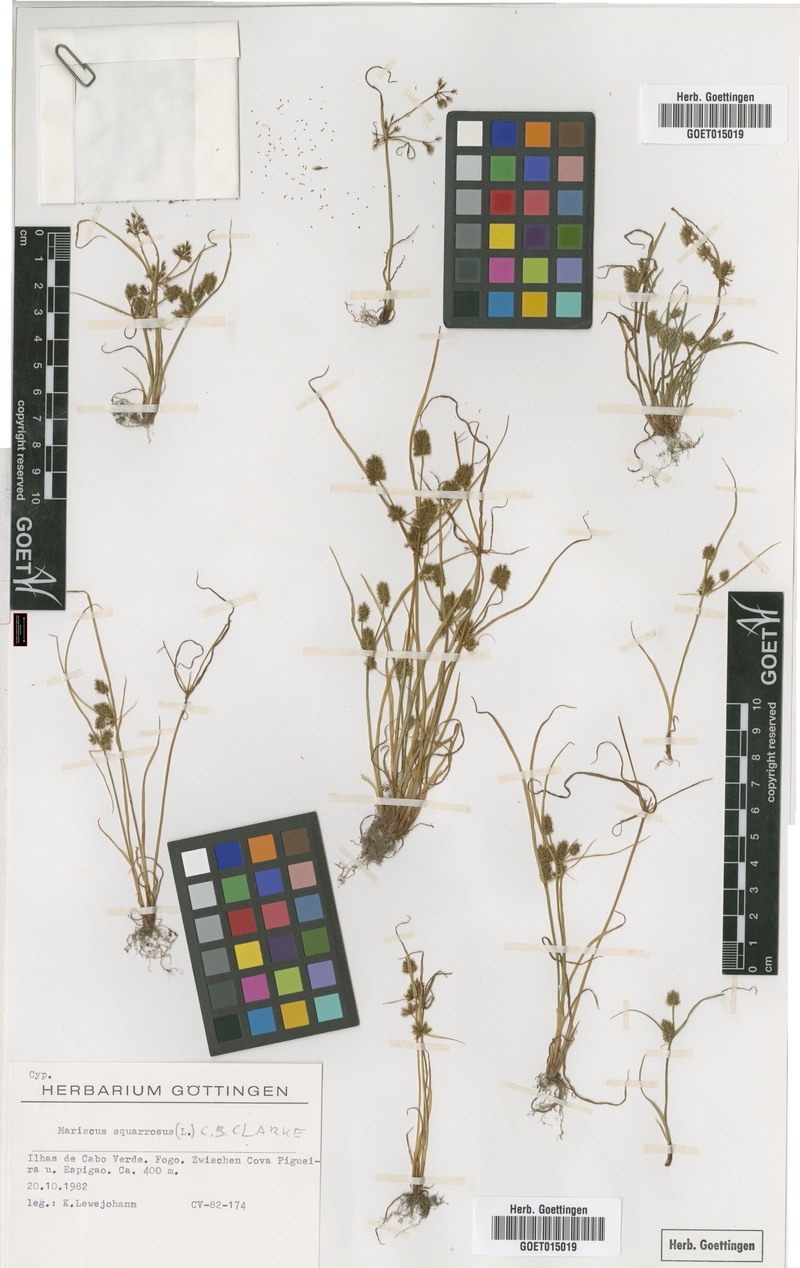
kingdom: Plantae
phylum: Tracheophyta
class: Liliopsida
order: Poales
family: Cyperaceae
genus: Cyperus
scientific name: Cyperus squarrosus
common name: Awned cyperus
